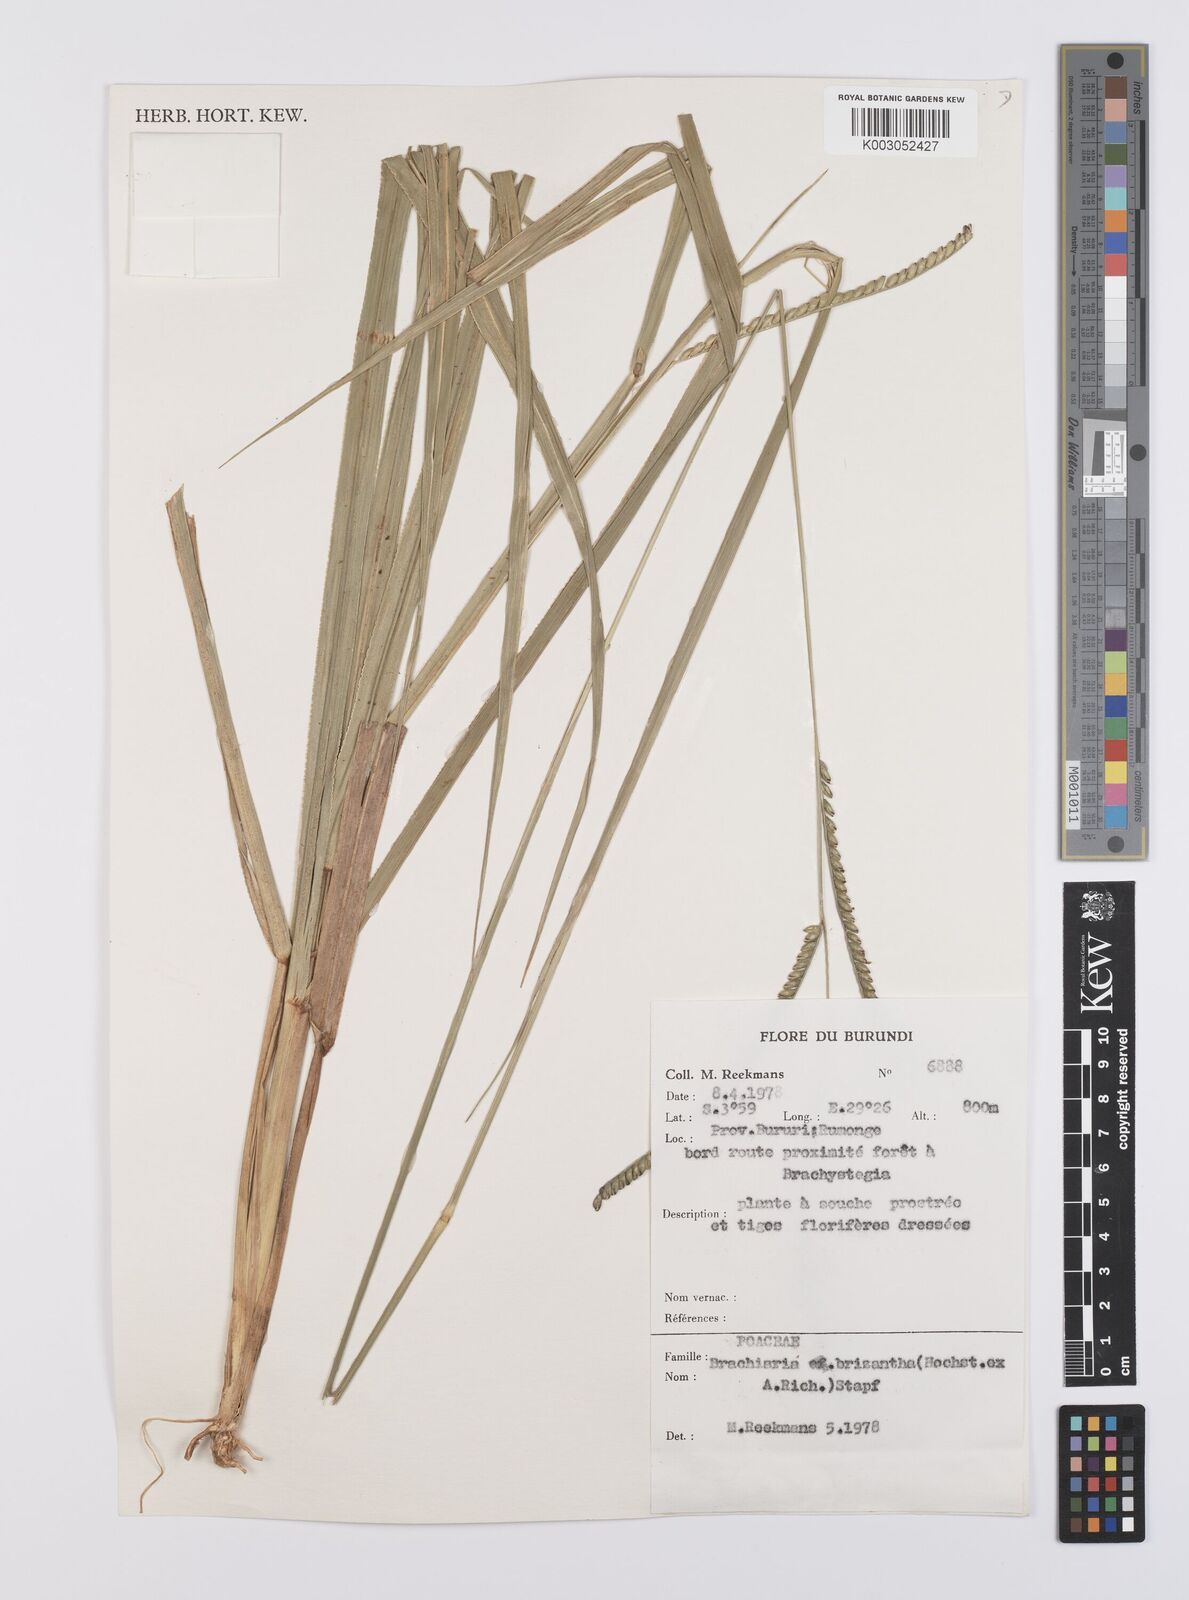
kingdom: Plantae
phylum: Tracheophyta
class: Liliopsida
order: Poales
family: Poaceae
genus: Urochloa
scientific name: Urochloa brizantha
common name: Palisade signalgrass
